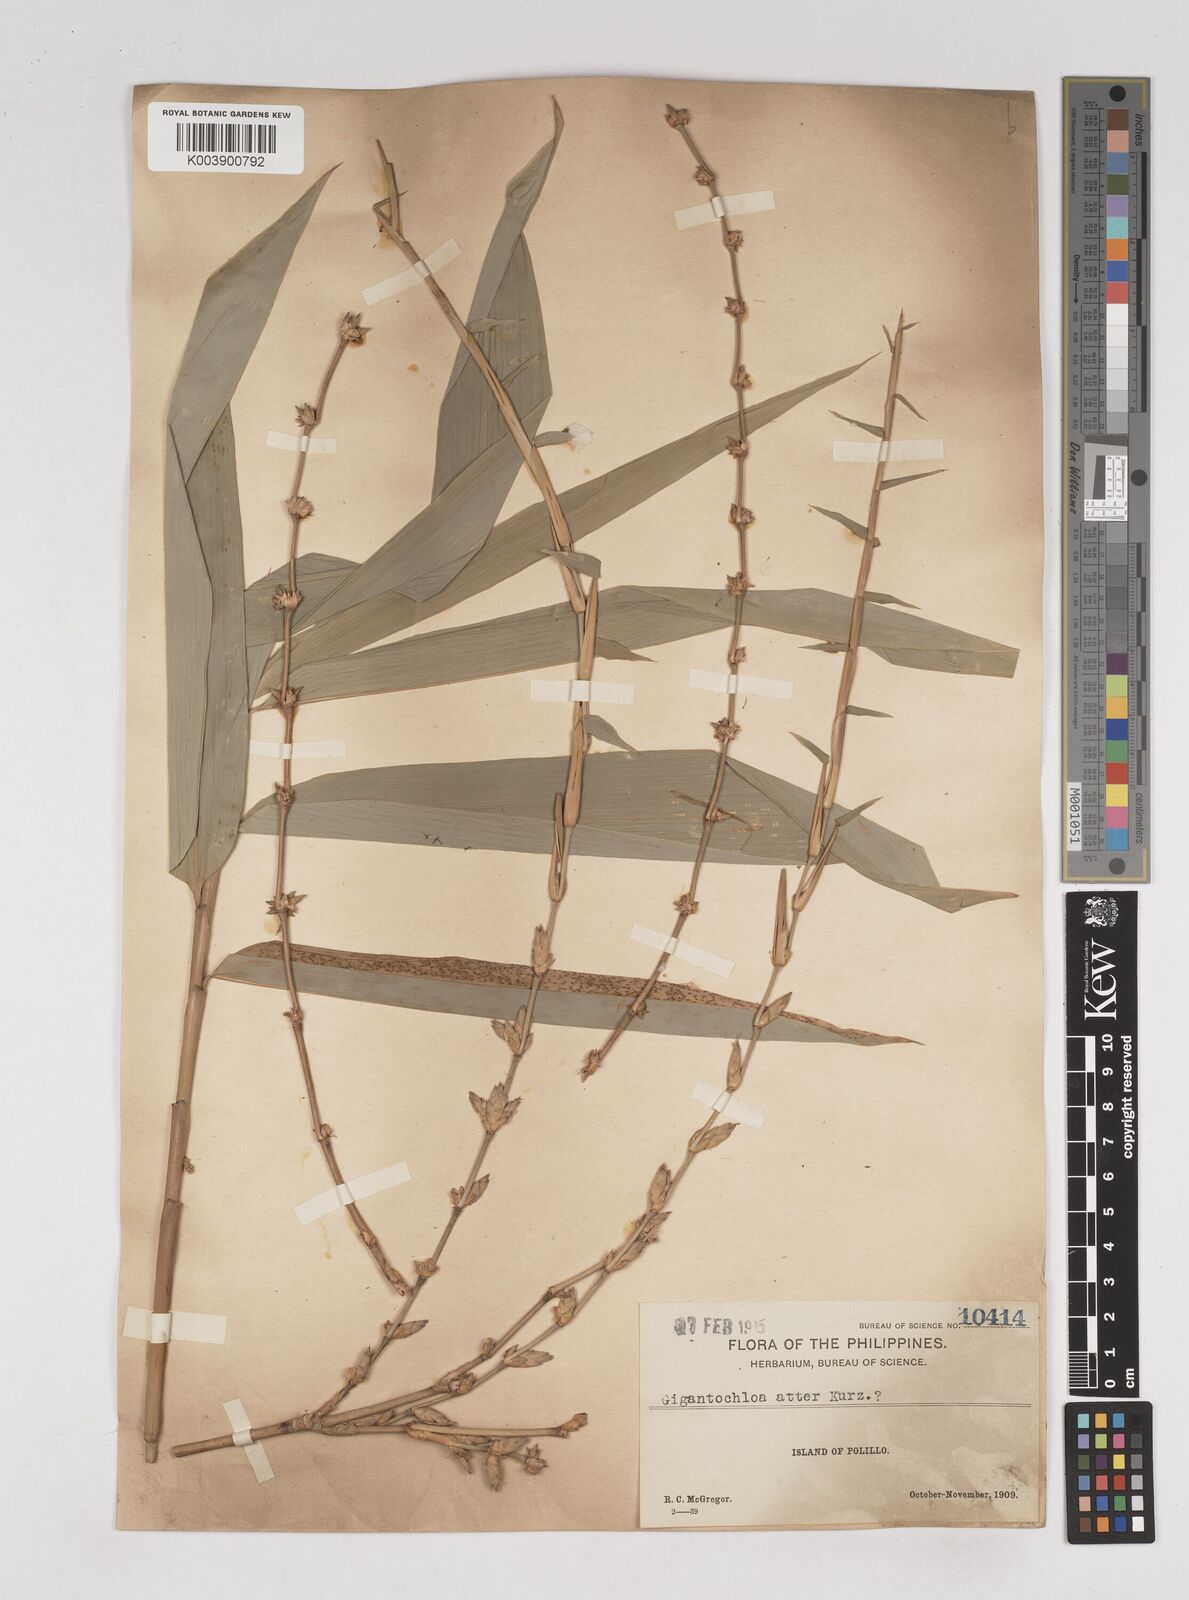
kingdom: Plantae
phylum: Tracheophyta
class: Liliopsida
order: Poales
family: Poaceae
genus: Gigantochloa
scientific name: Gigantochloa levis
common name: Smooth-shoot gigantochloa
